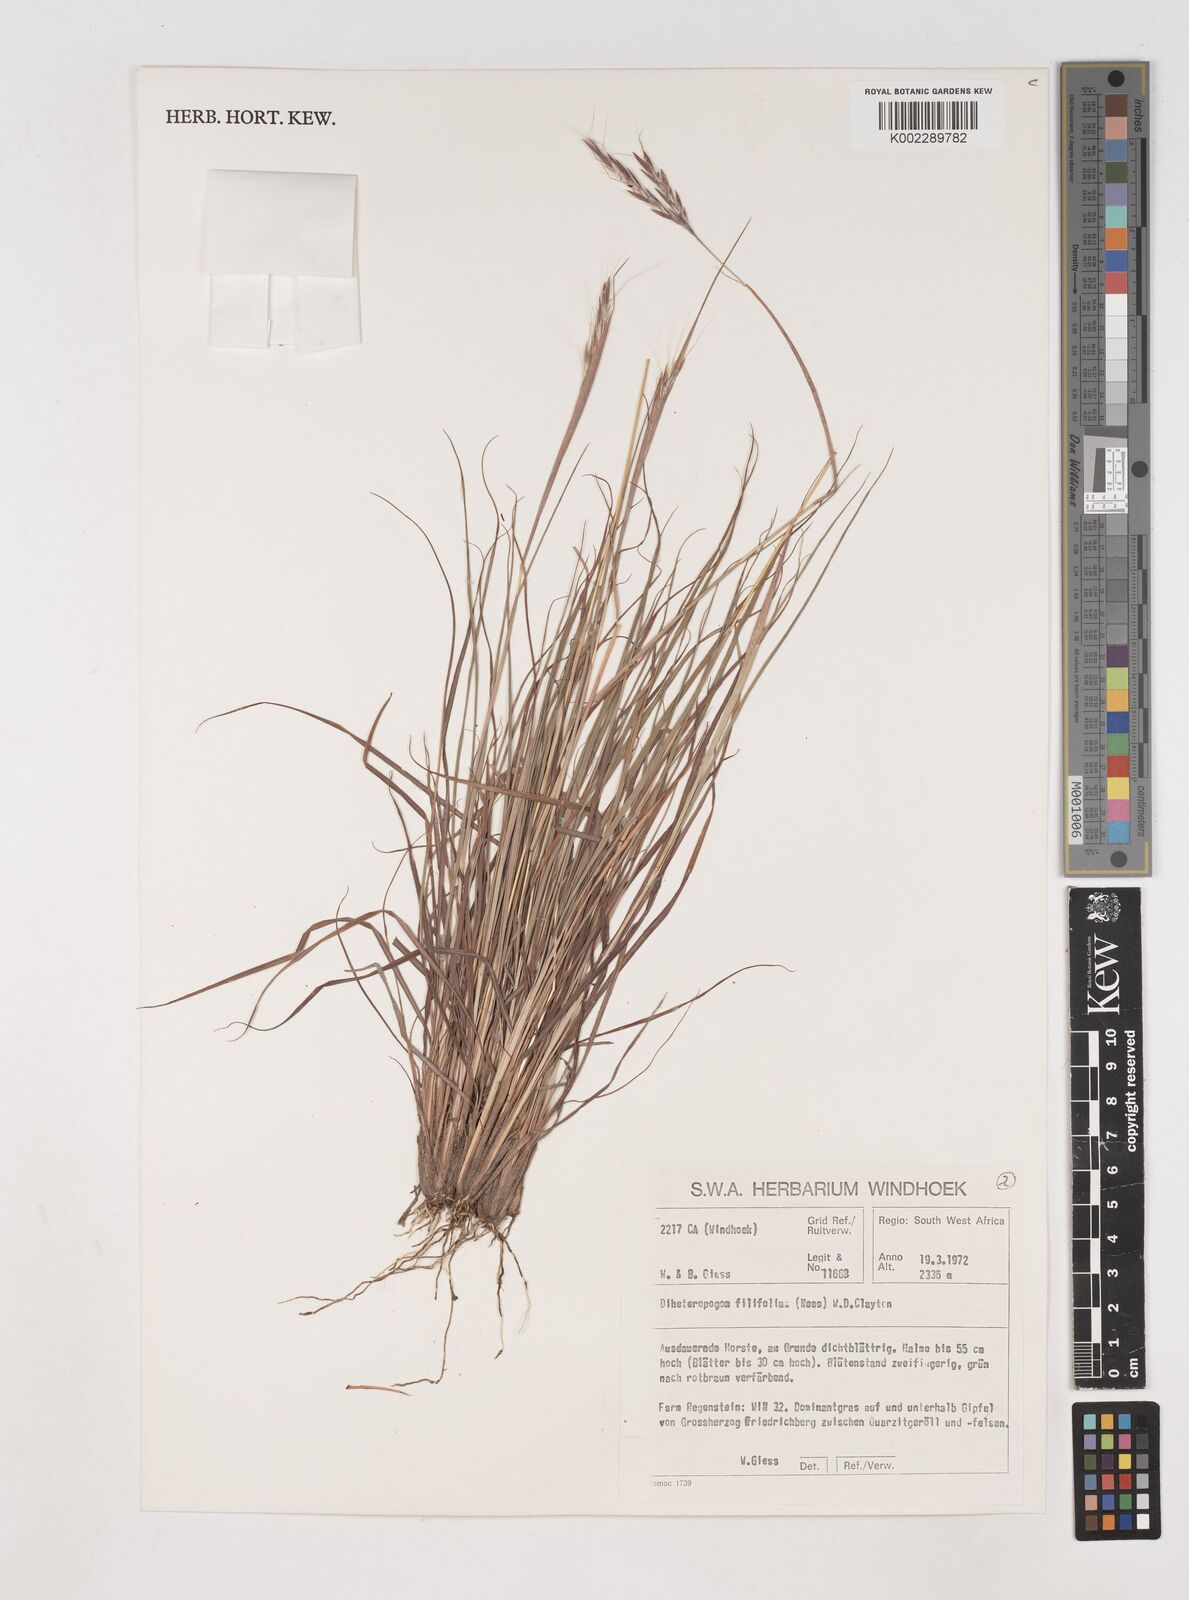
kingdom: Plantae
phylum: Tracheophyta
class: Liliopsida
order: Poales
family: Poaceae
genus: Diheteropogon
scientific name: Diheteropogon filifolius
